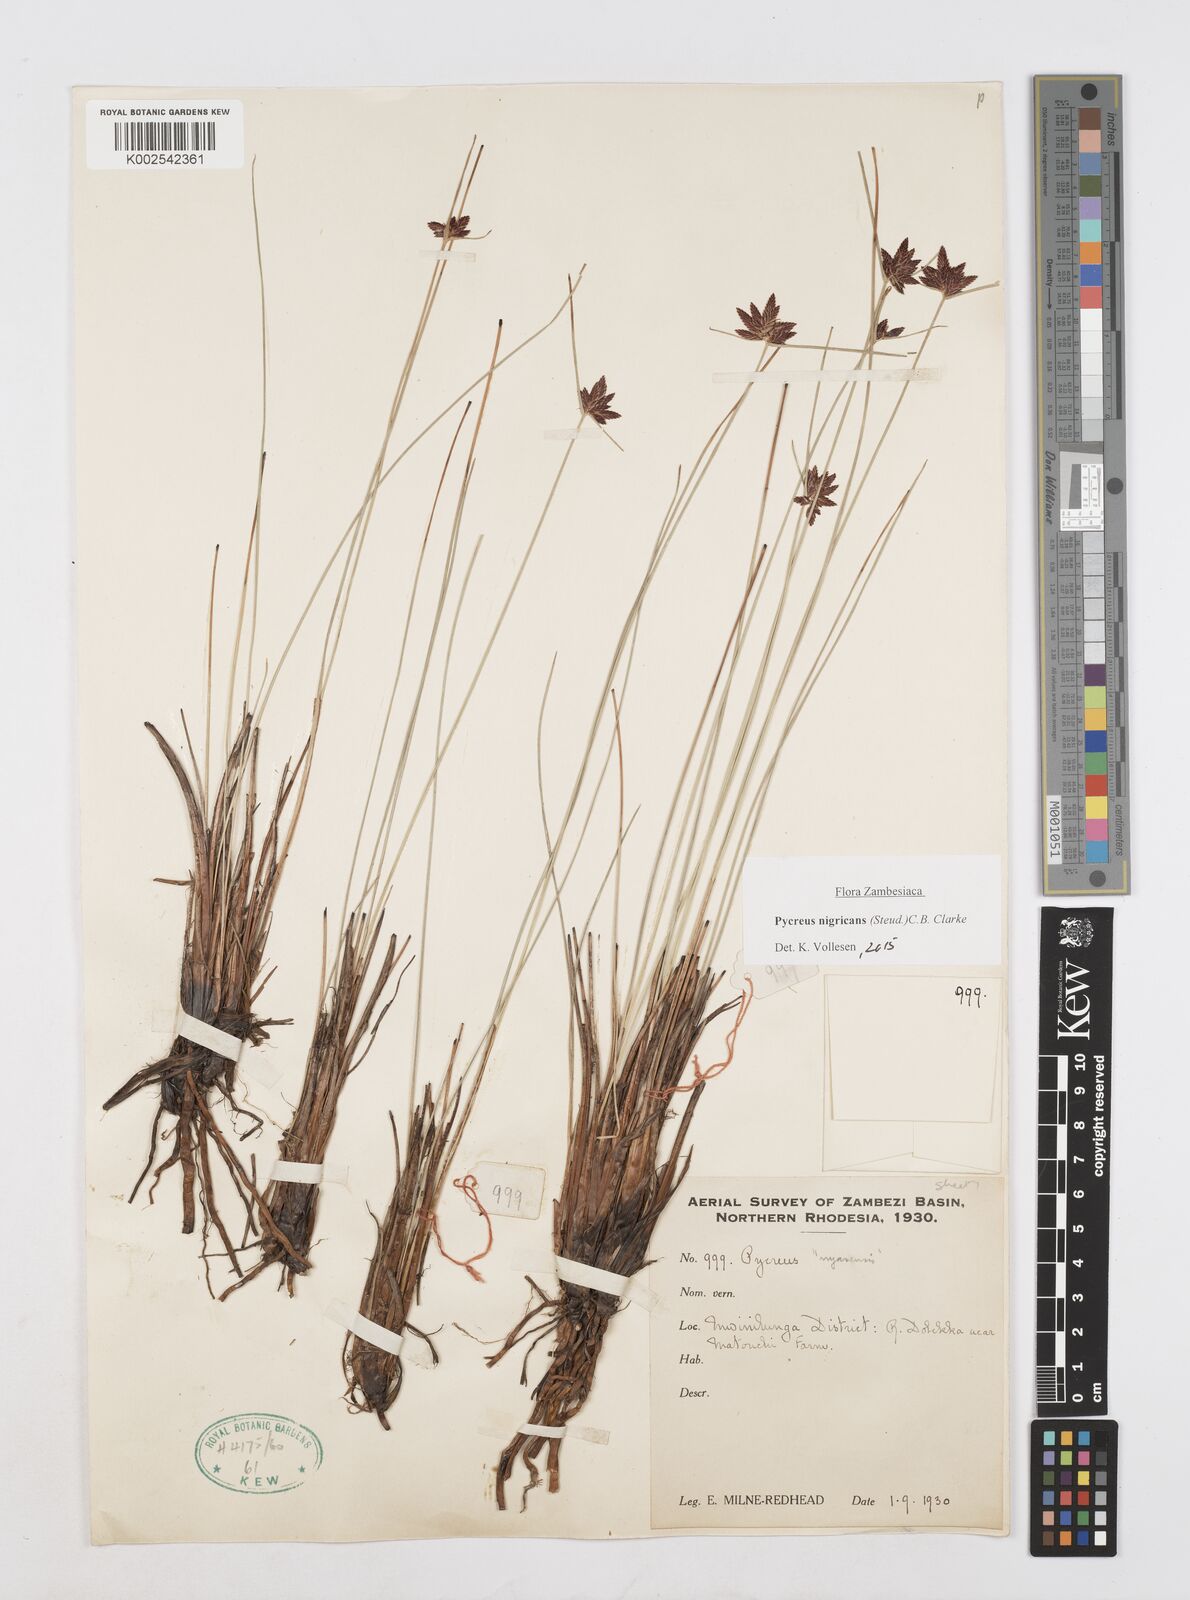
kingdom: Plantae
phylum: Tracheophyta
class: Liliopsida
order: Poales
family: Cyperaceae
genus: Cyperus
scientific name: Cyperus nigricans
